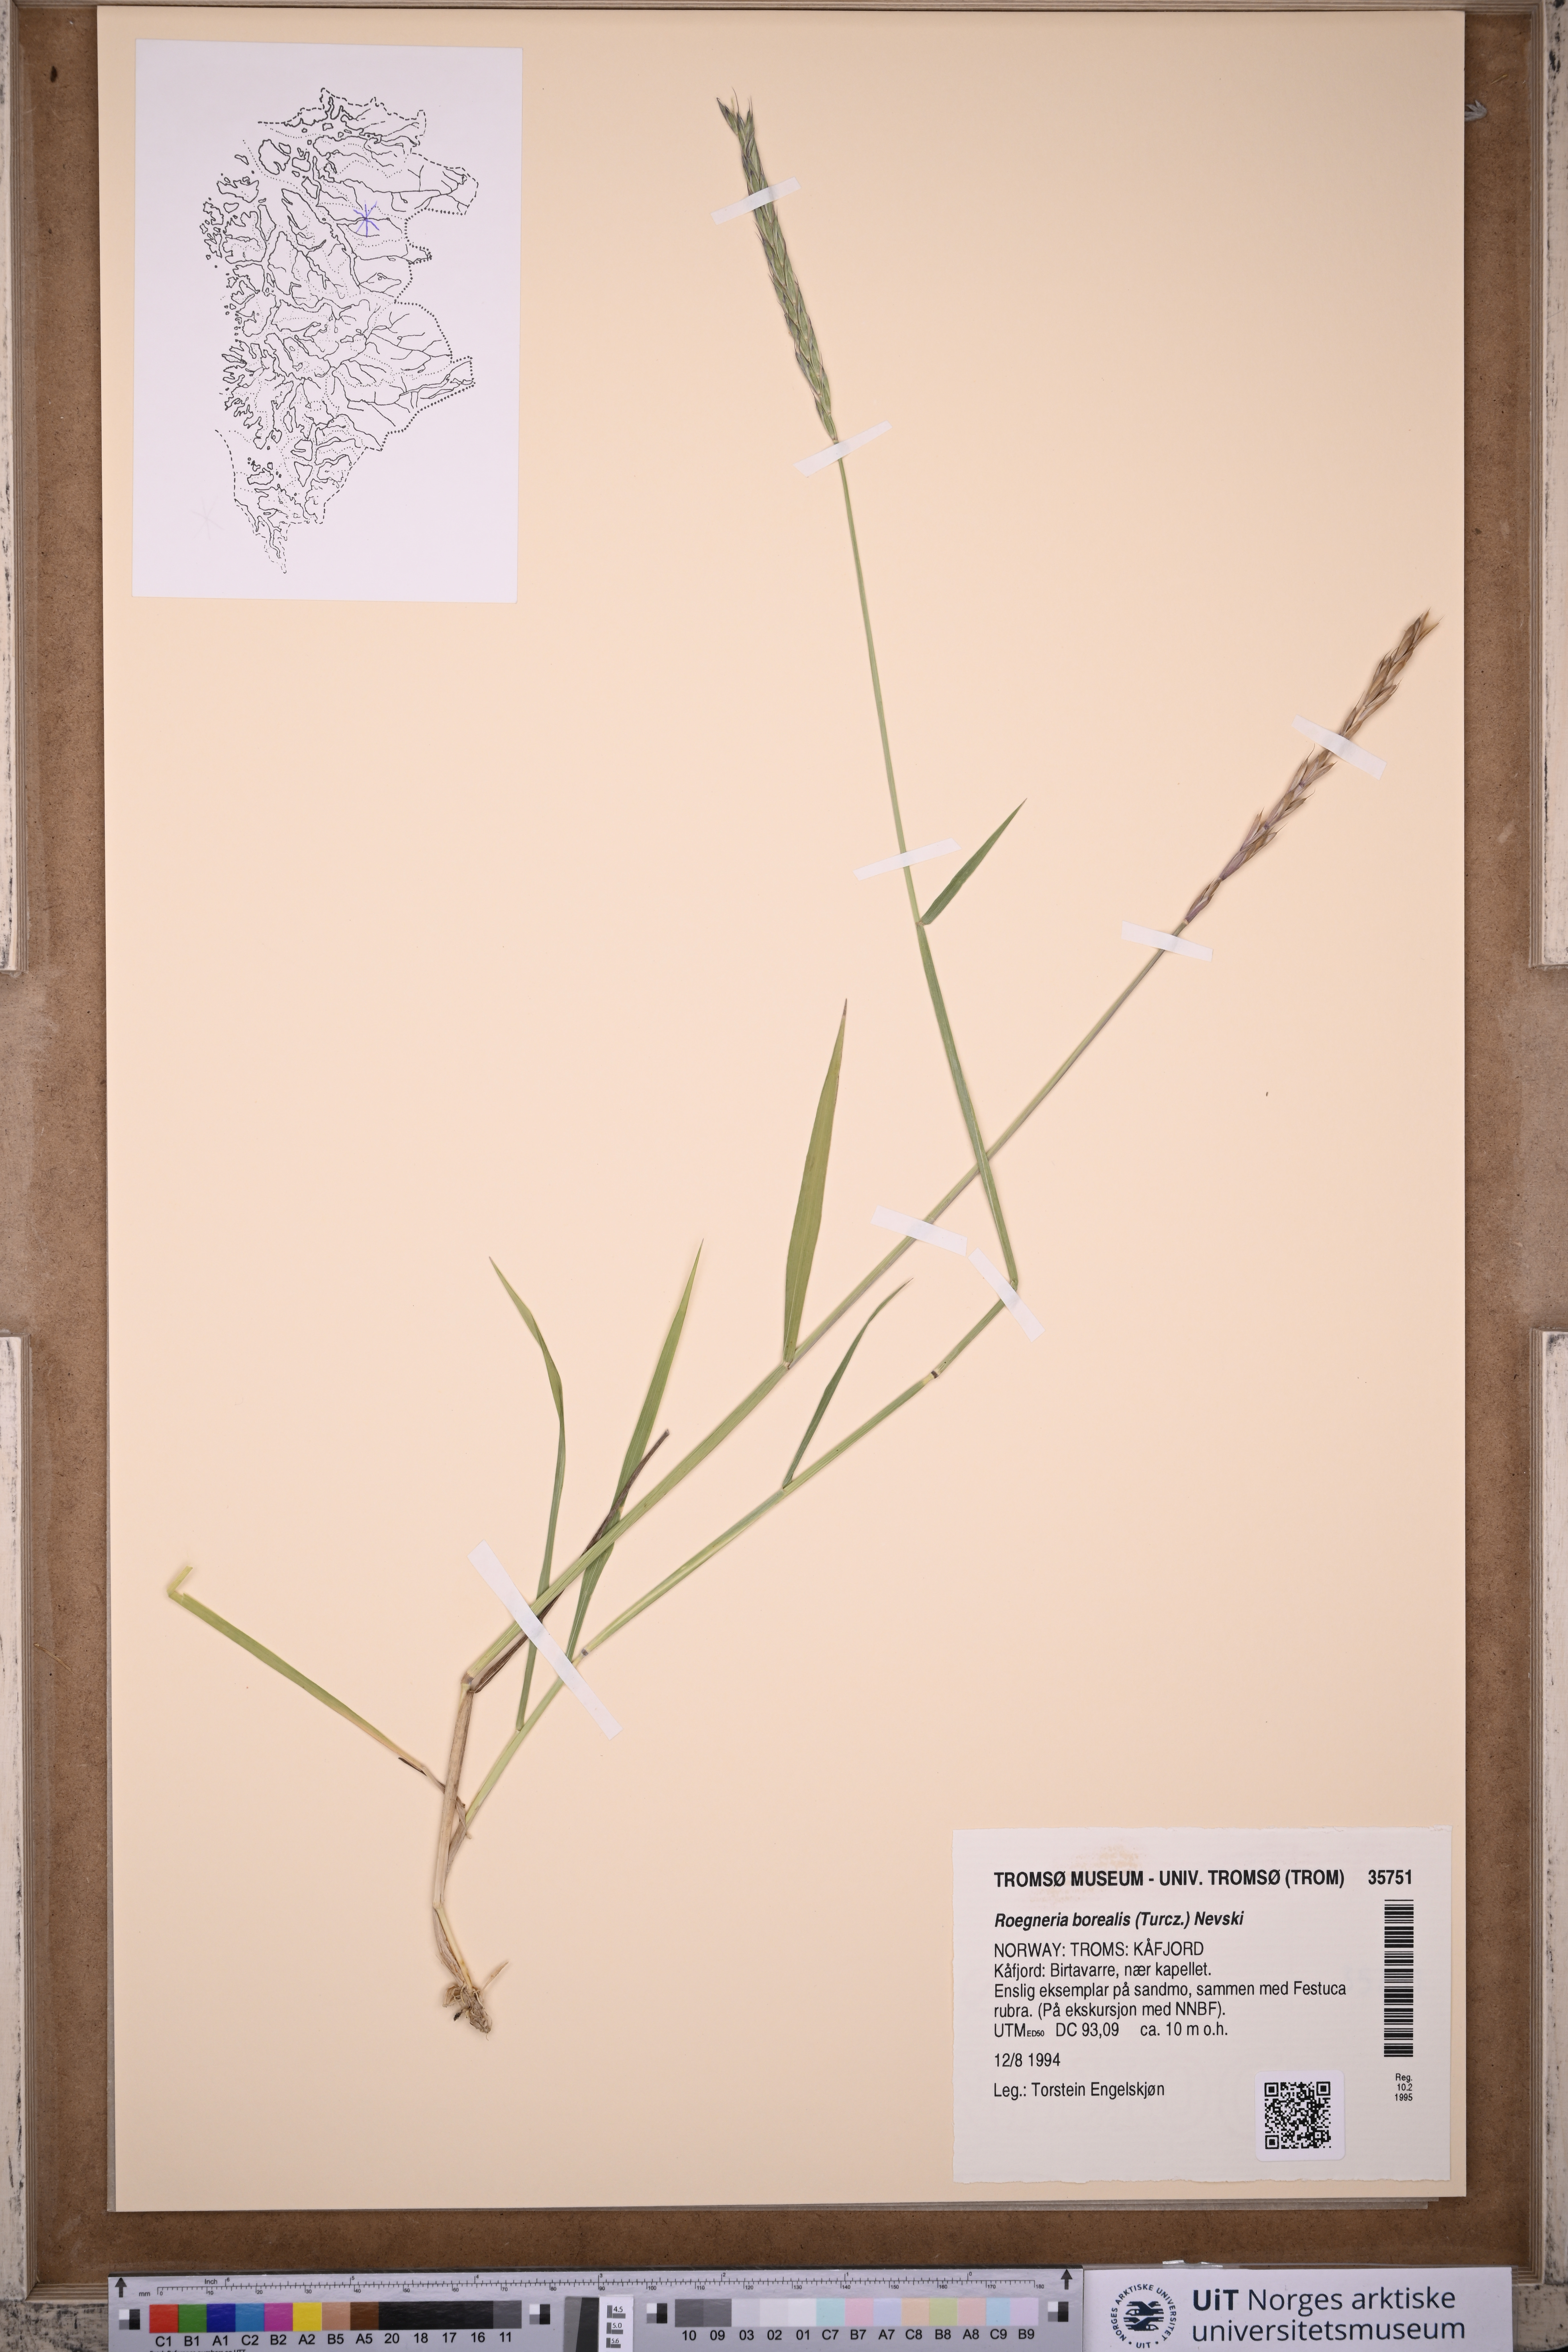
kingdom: Plantae
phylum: Tracheophyta
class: Liliopsida
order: Poales
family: Poaceae
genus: Elymus
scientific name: Elymus macrourus
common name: Northern wheatgrass
